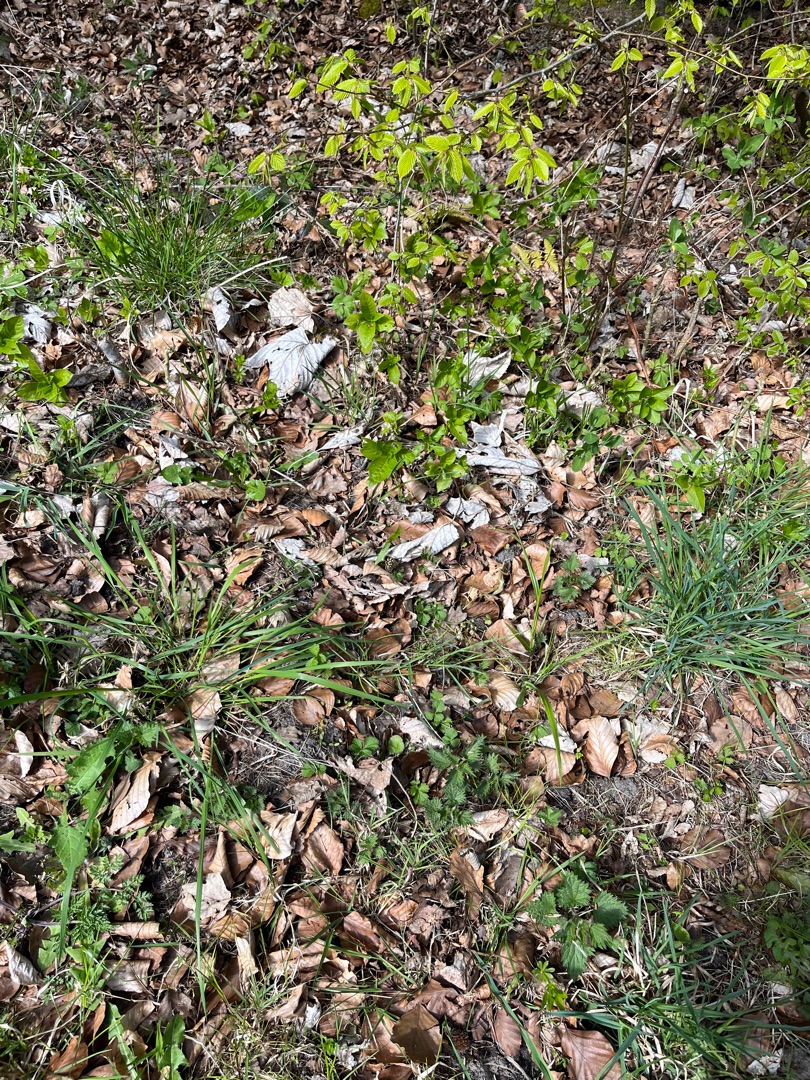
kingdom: Animalia
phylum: Arthropoda
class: Insecta
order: Lepidoptera
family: Nymphalidae
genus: Pararge
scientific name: Pararge aegeria
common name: Skovrandøje
